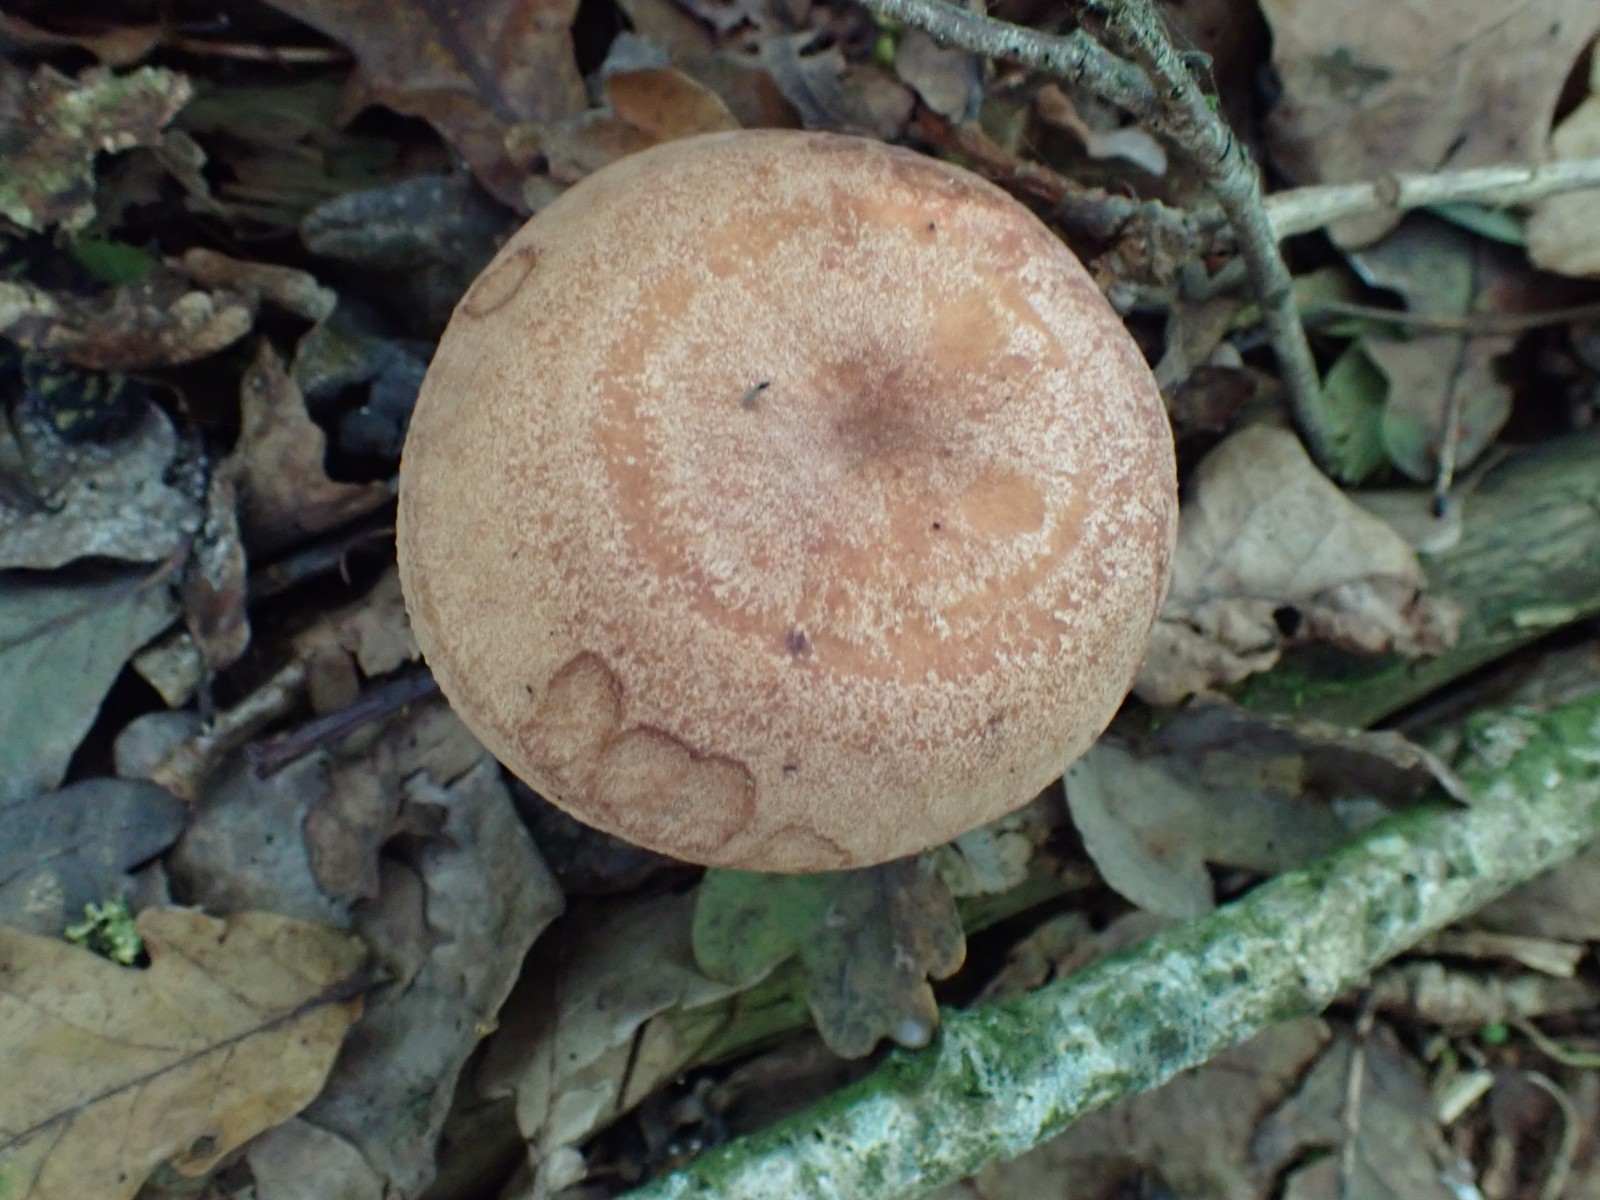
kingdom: Fungi
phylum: Basidiomycota
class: Agaricomycetes
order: Russulales
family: Russulaceae
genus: Lactarius
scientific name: Lactarius quietus
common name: ege-mælkehat
